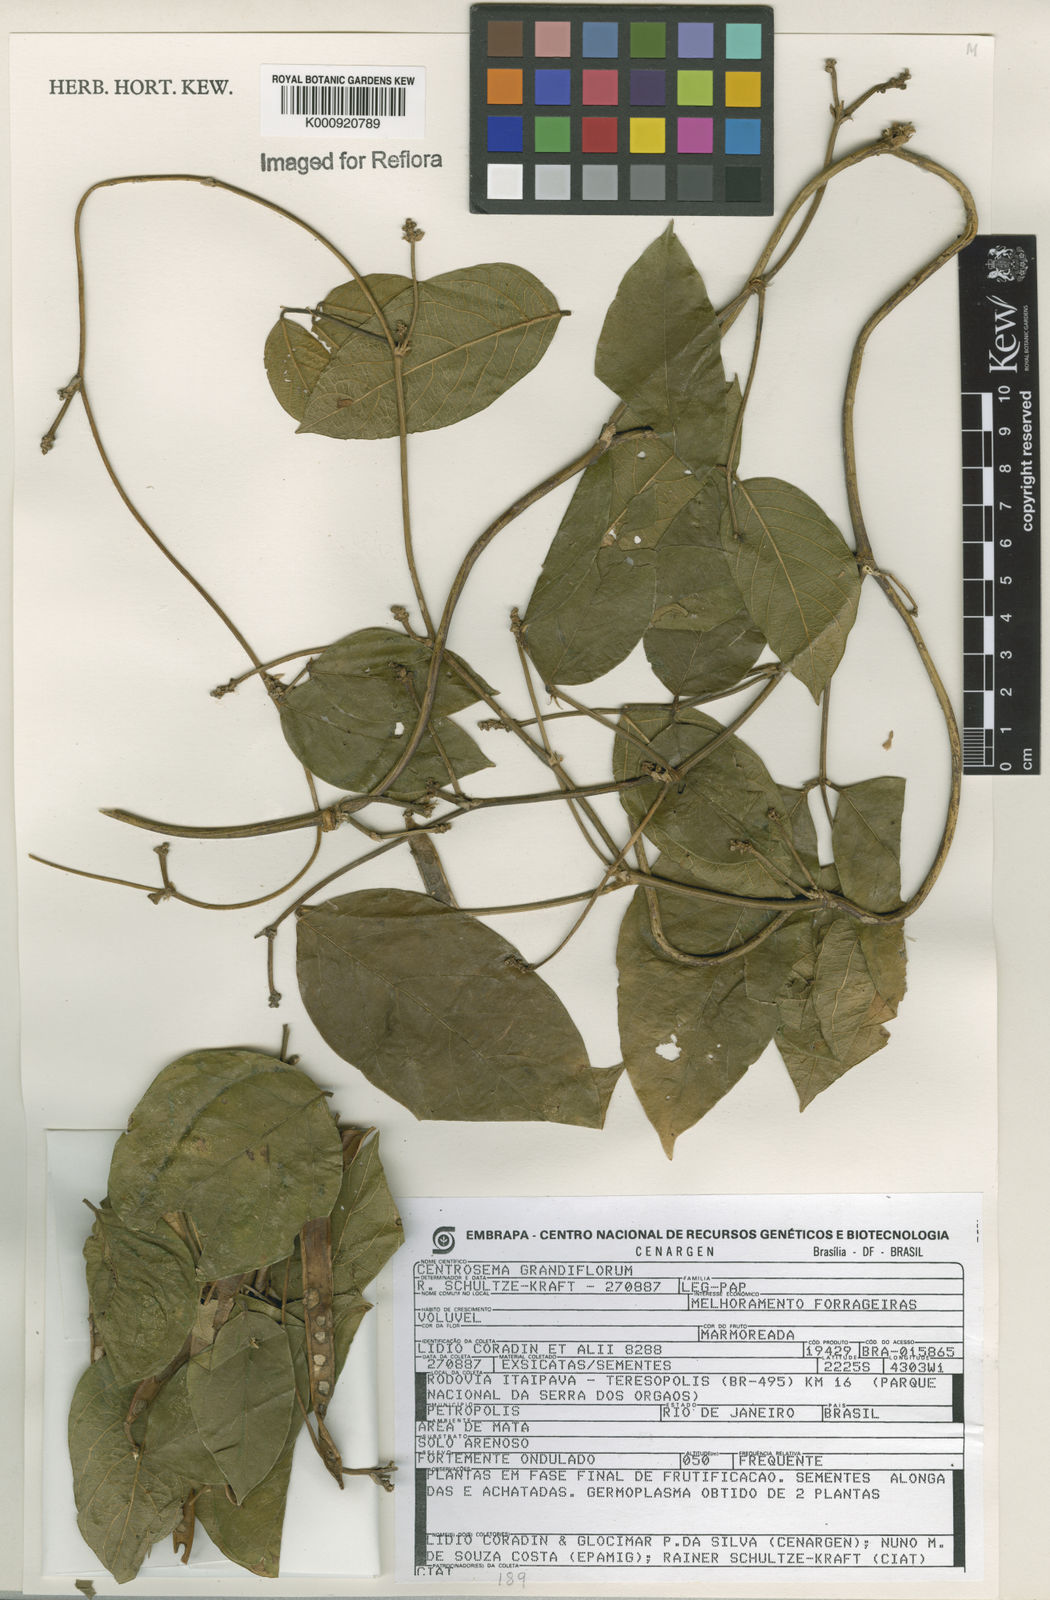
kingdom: Plantae
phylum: Tracheophyta
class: Magnoliopsida
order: Fabales
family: Fabaceae
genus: Centrosema
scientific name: Centrosema grandiflorum
